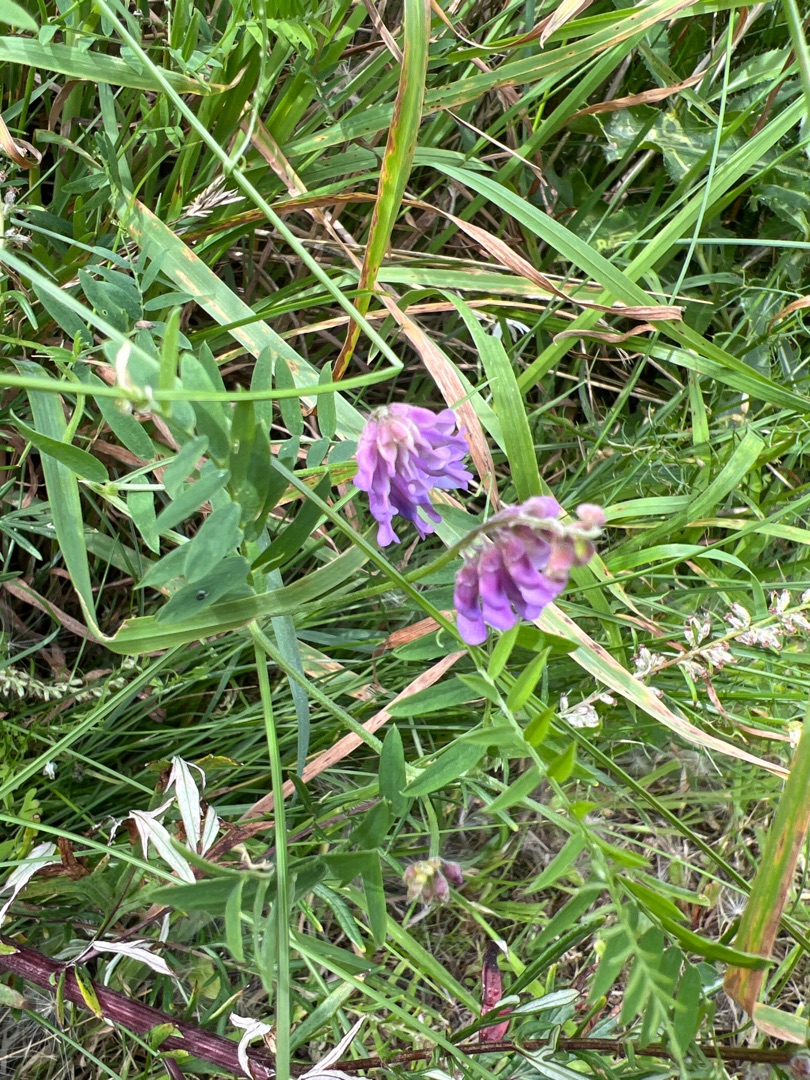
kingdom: Plantae
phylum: Tracheophyta
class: Magnoliopsida
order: Fabales
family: Fabaceae
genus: Vicia
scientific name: Vicia cracca
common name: Muse-vikke
